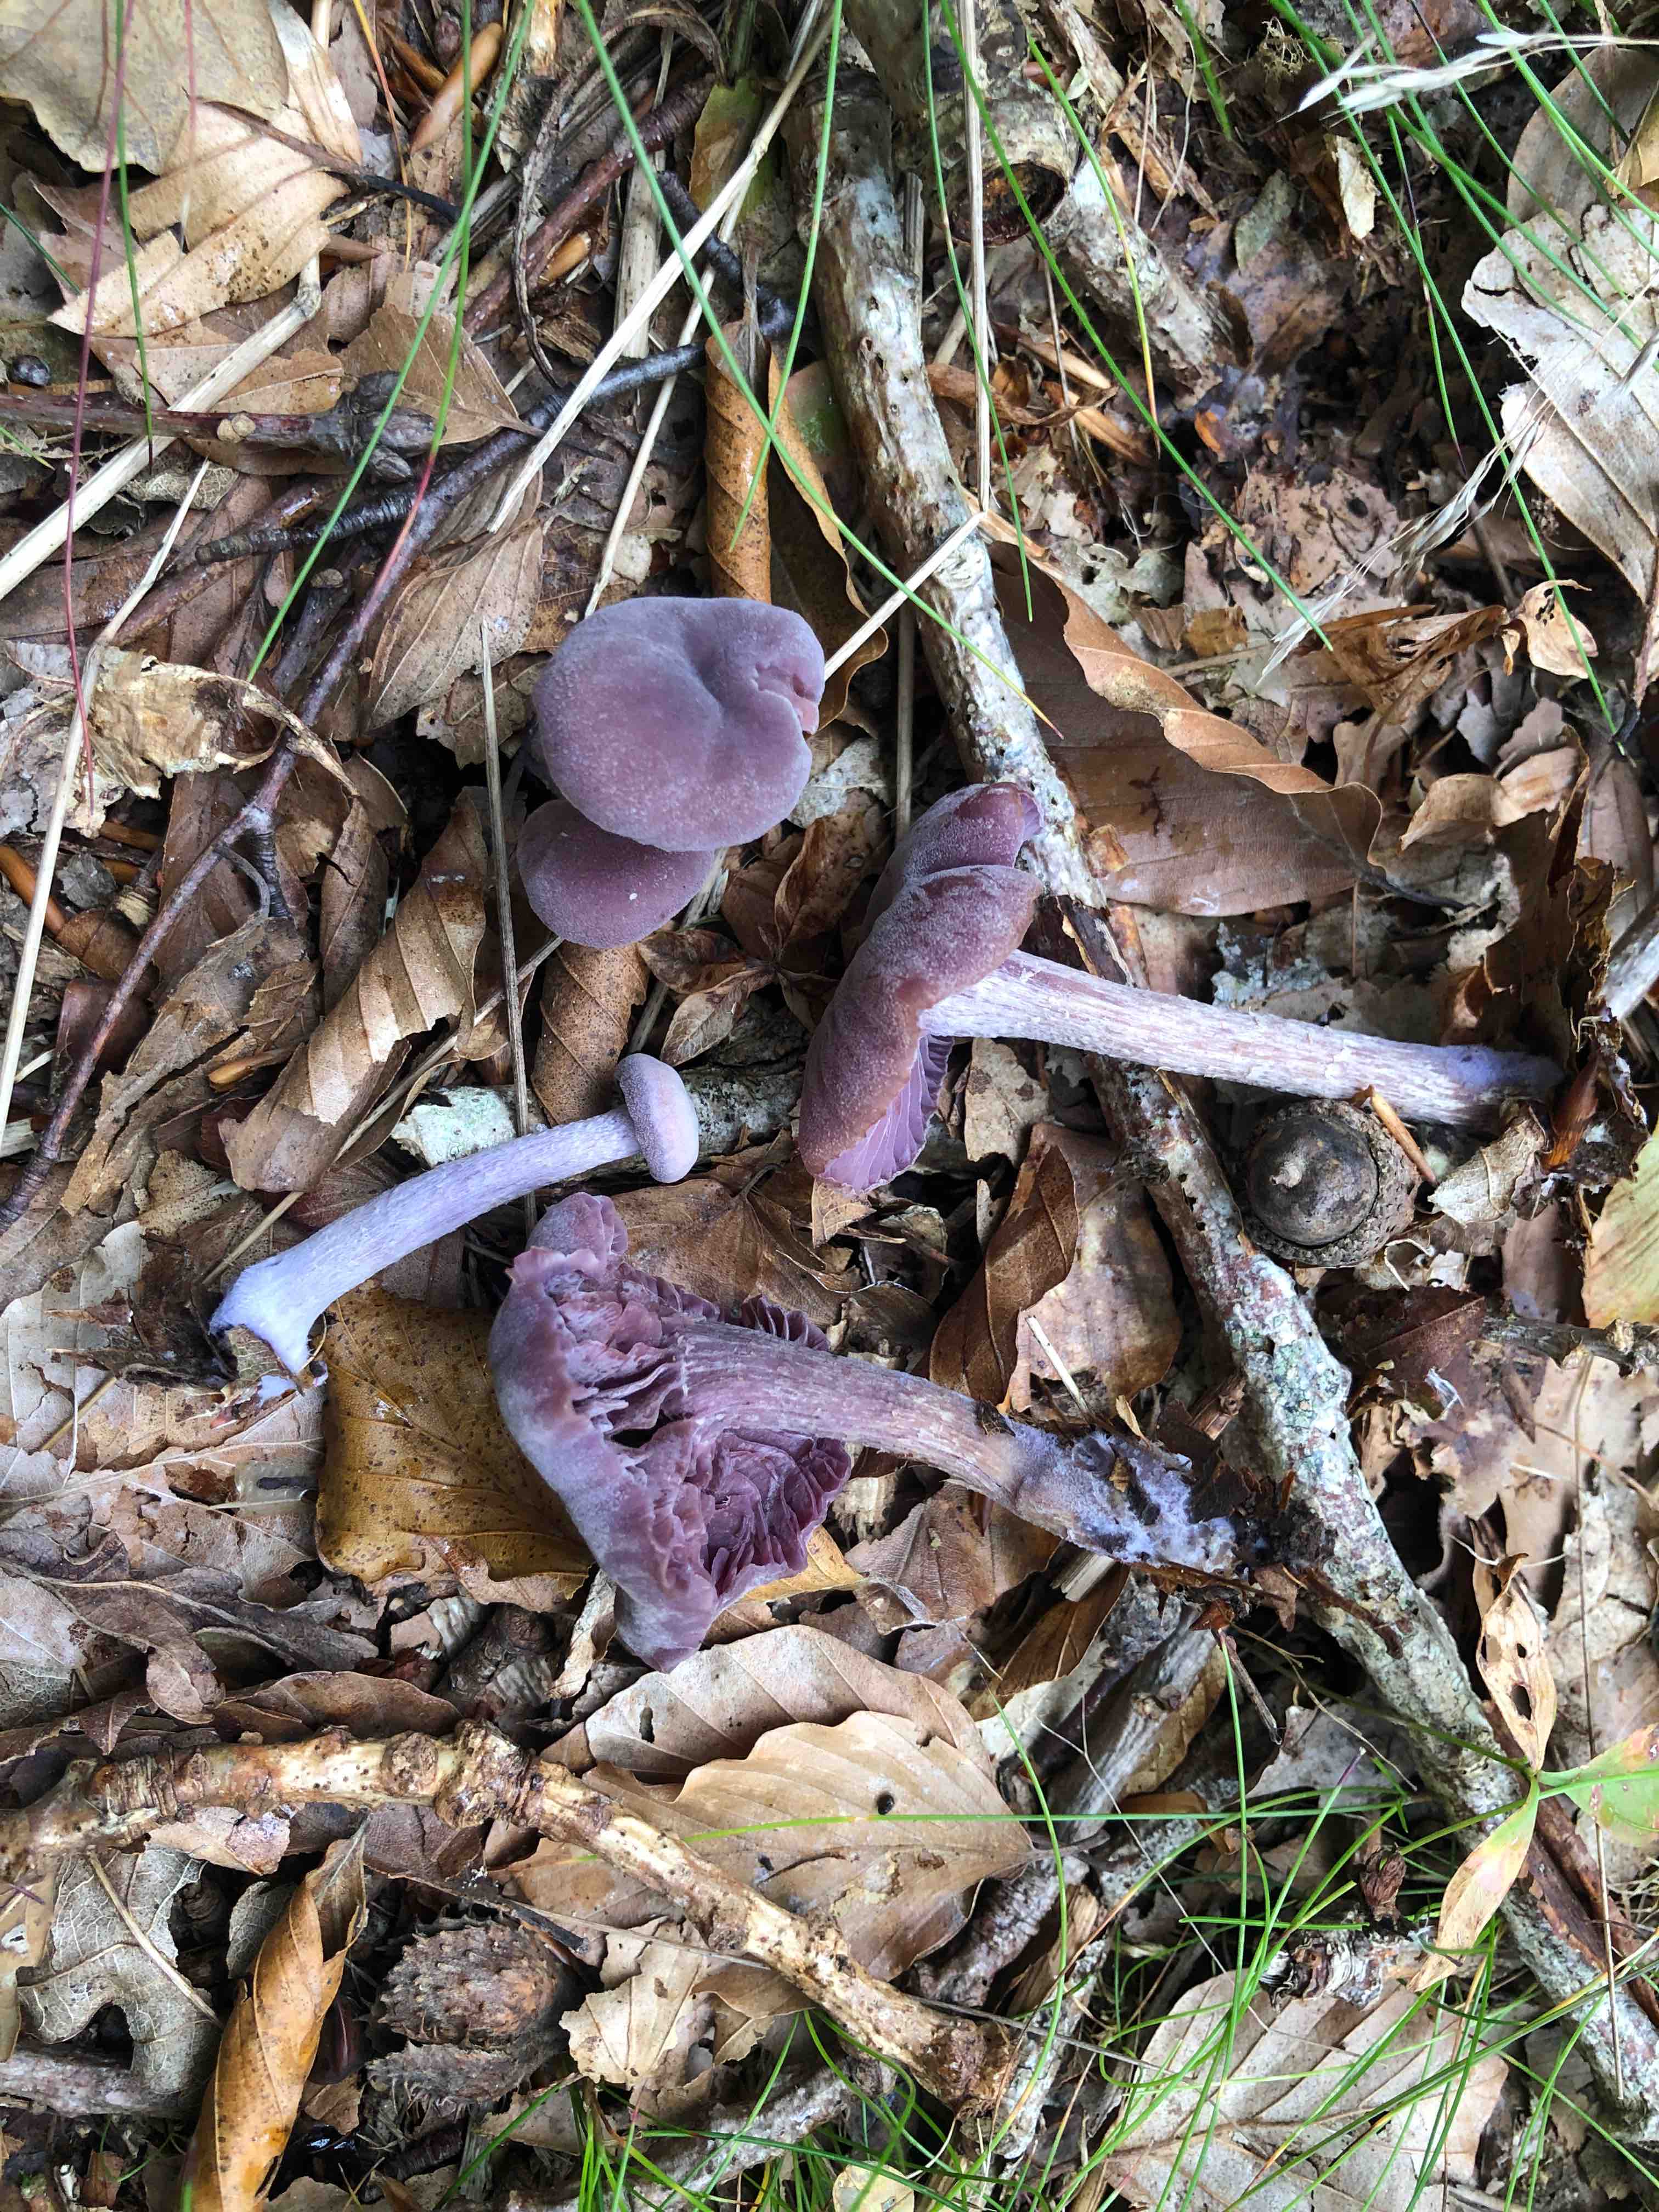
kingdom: Fungi
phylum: Basidiomycota
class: Agaricomycetes
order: Agaricales
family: Hydnangiaceae
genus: Laccaria
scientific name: Laccaria amethystina
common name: violet ametysthat
